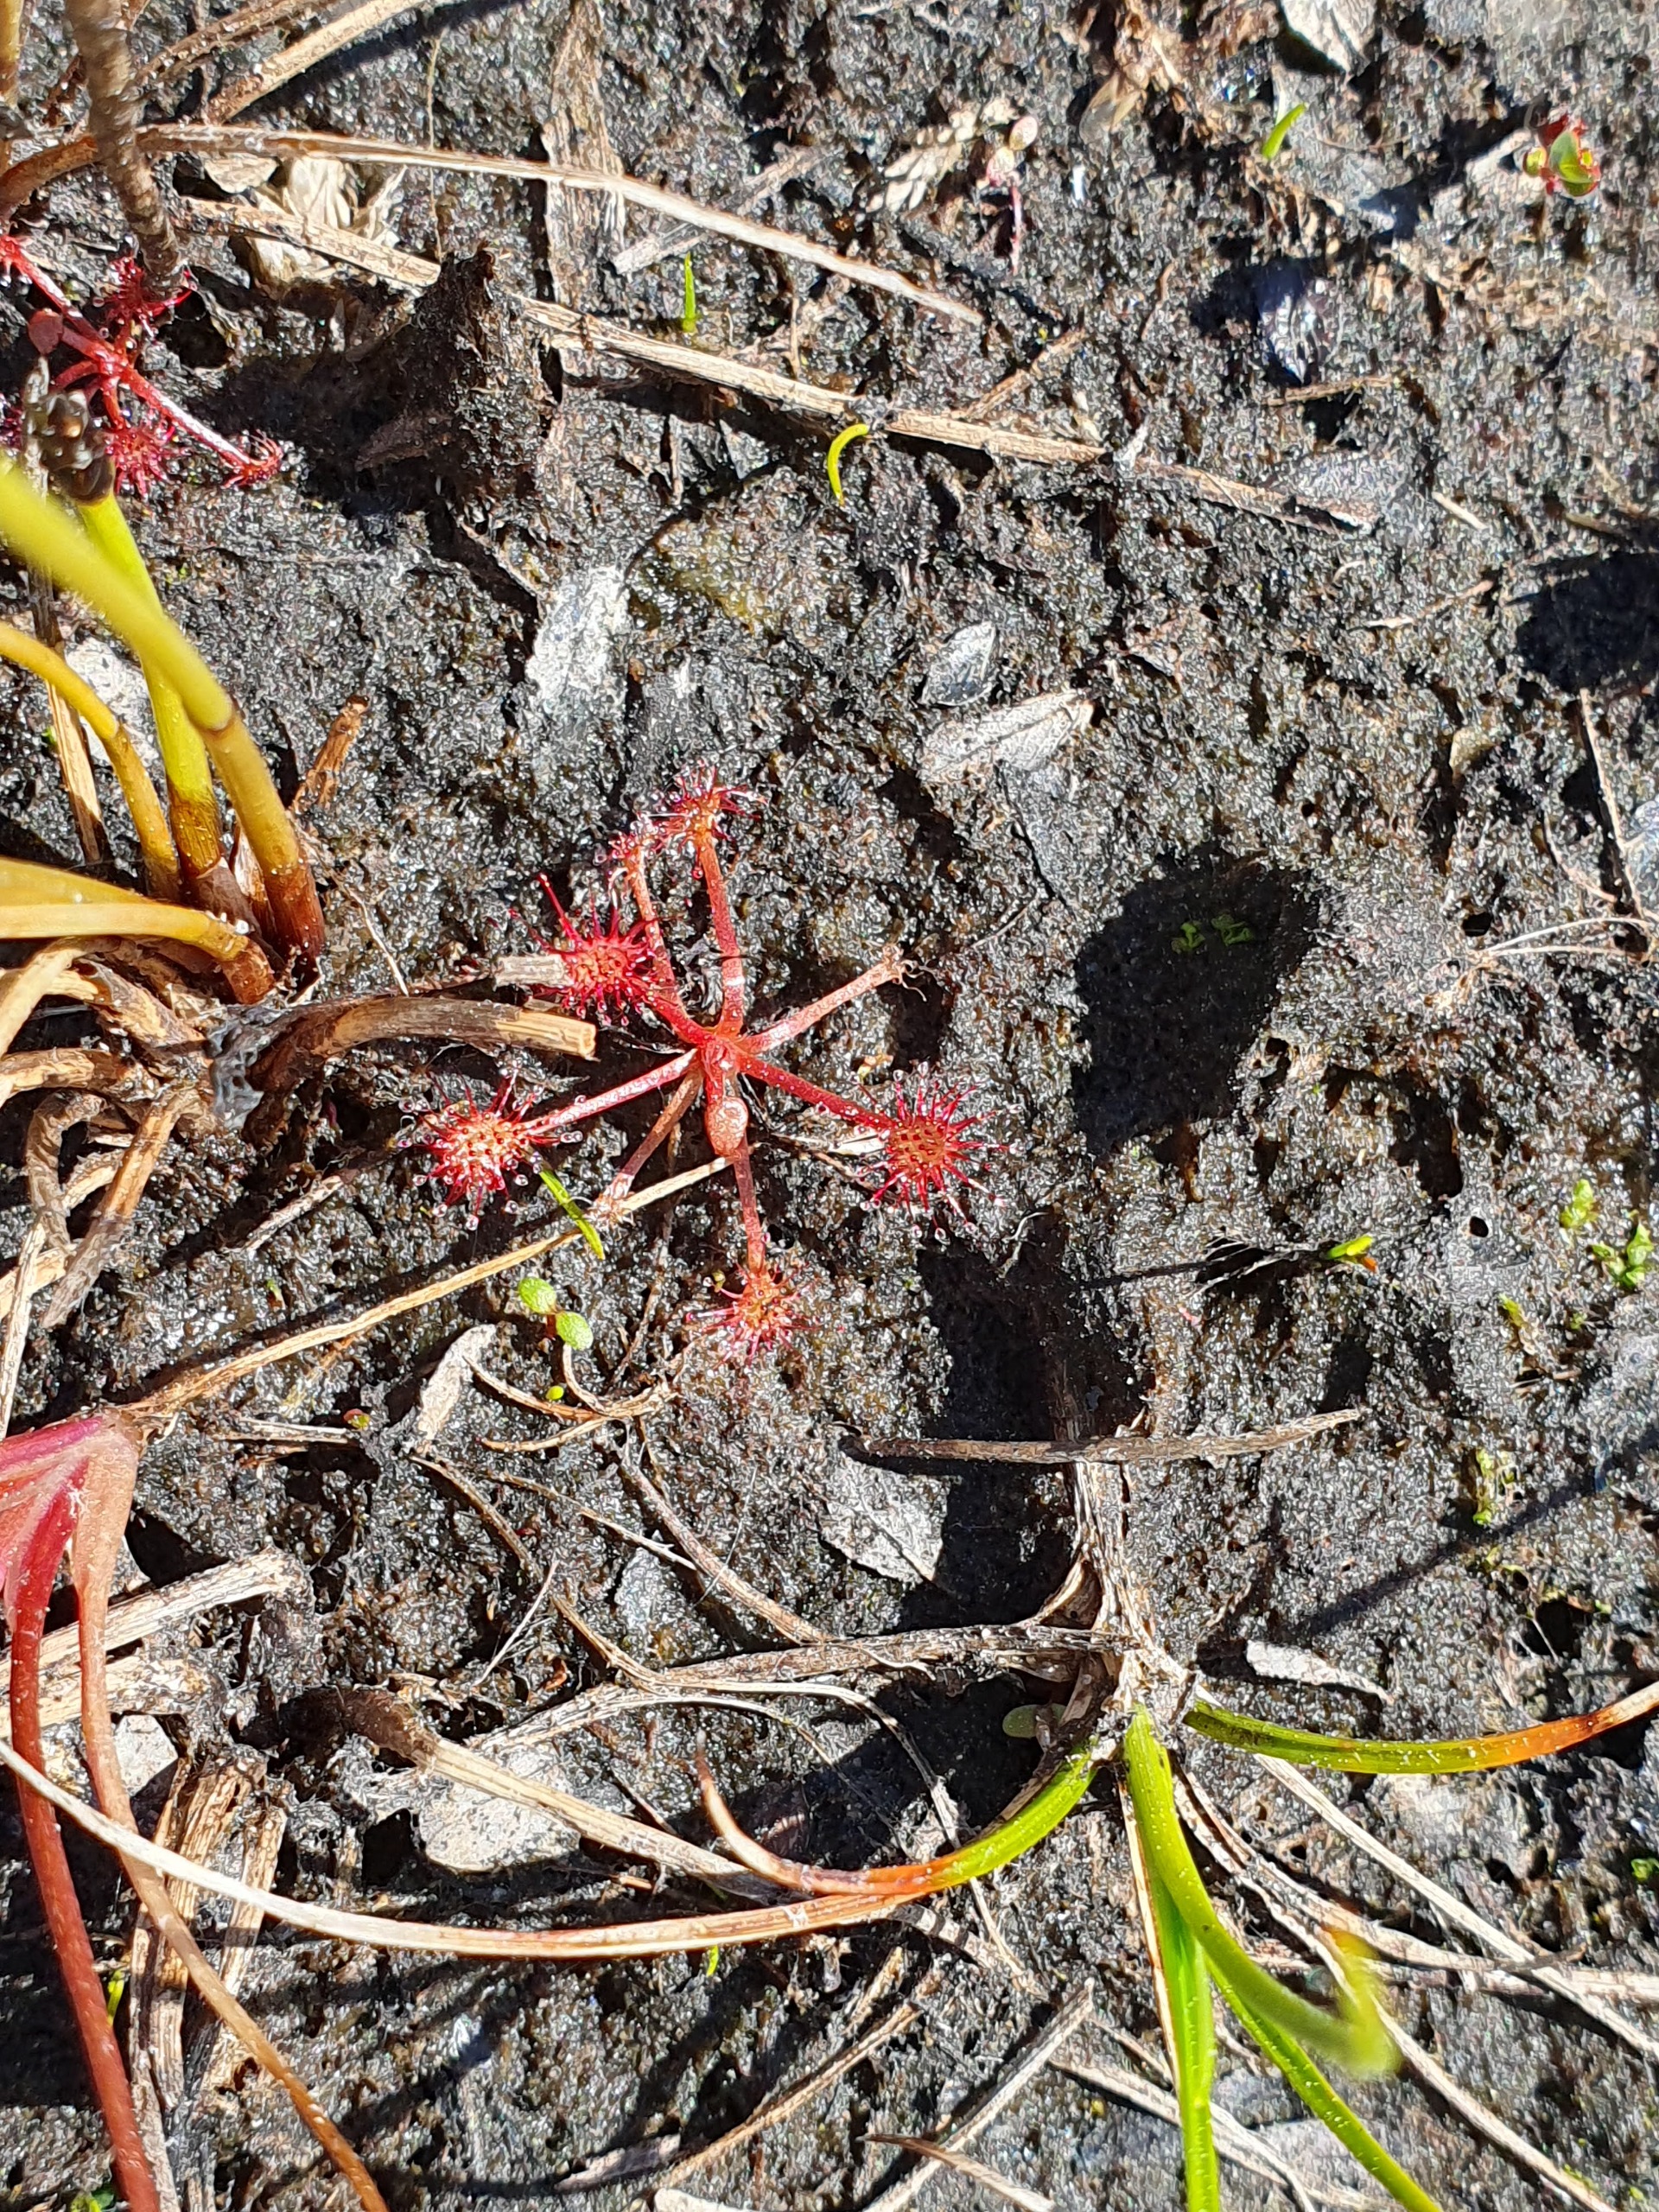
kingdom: Plantae
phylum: Tracheophyta
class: Magnoliopsida
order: Caryophyllales
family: Droseraceae
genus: Drosera
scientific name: Drosera intermedia
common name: Liden soldug
